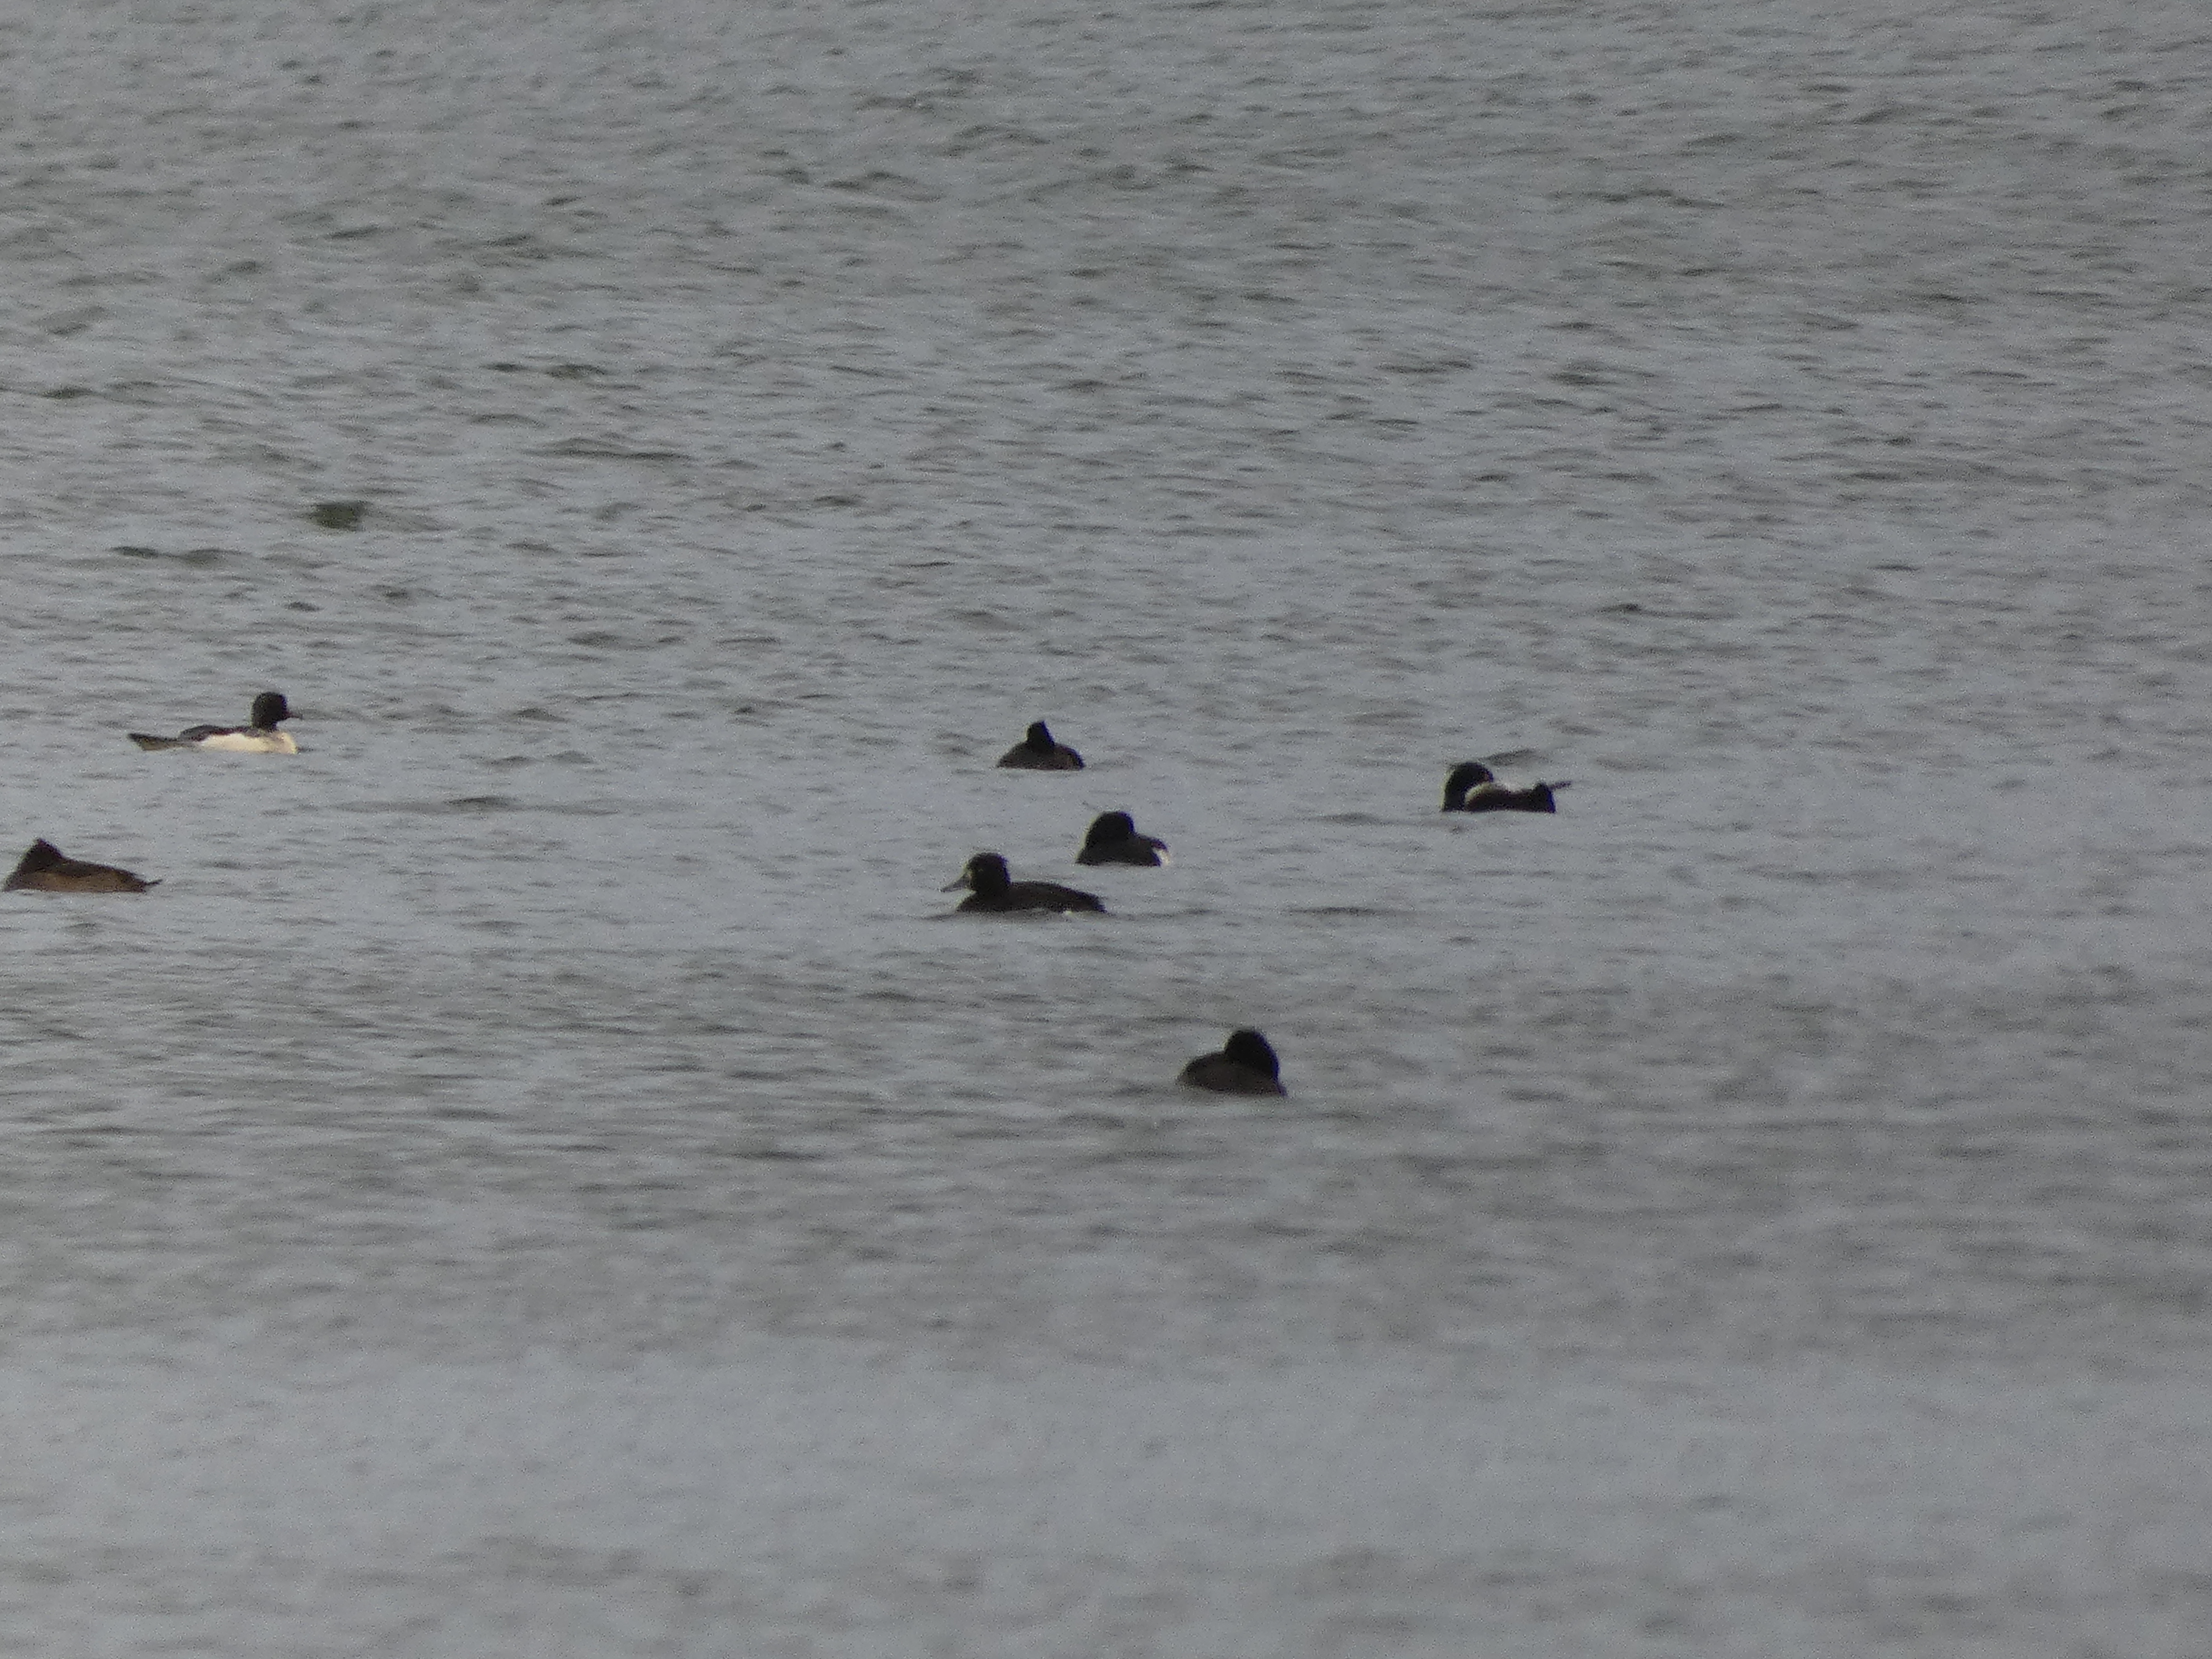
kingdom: Animalia
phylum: Chordata
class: Aves
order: Anseriformes
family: Anatidae
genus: Aythya
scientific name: Aythya fuligula
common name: Troldand
